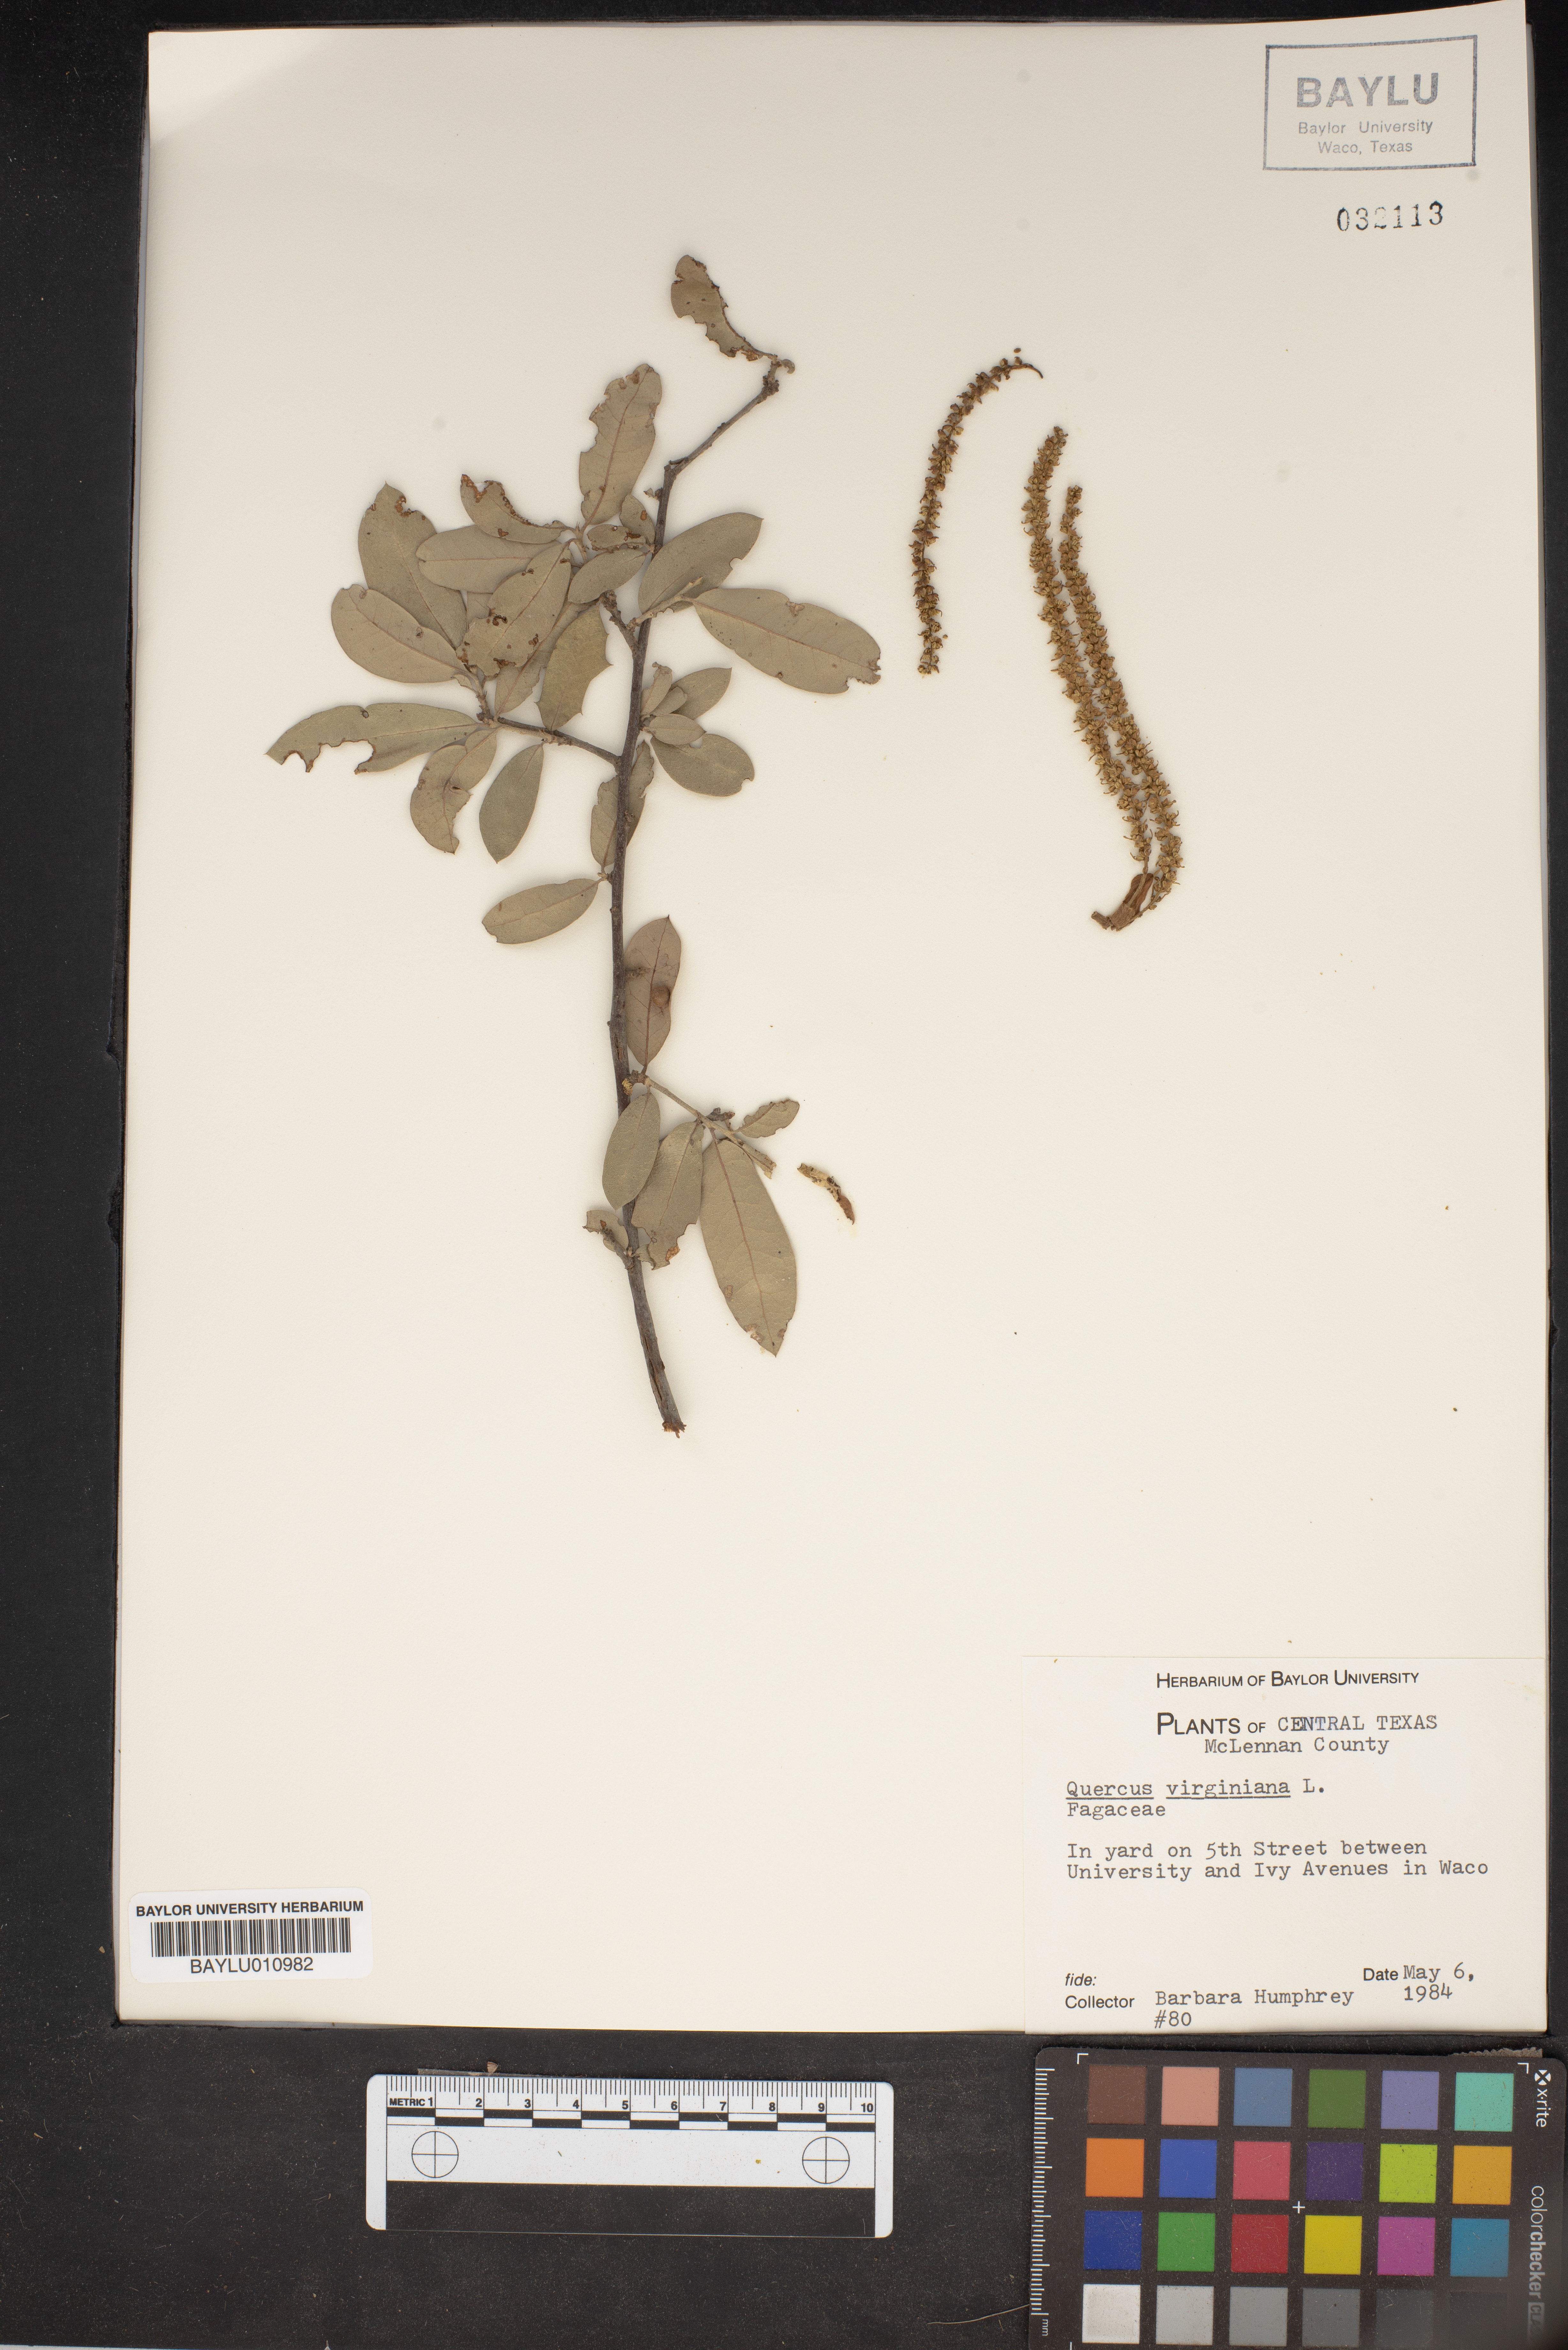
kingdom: Plantae
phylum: Tracheophyta
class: Magnoliopsida
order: Fagales
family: Fagaceae
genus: Quercus
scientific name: Quercus virginiana
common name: Southern live oak
